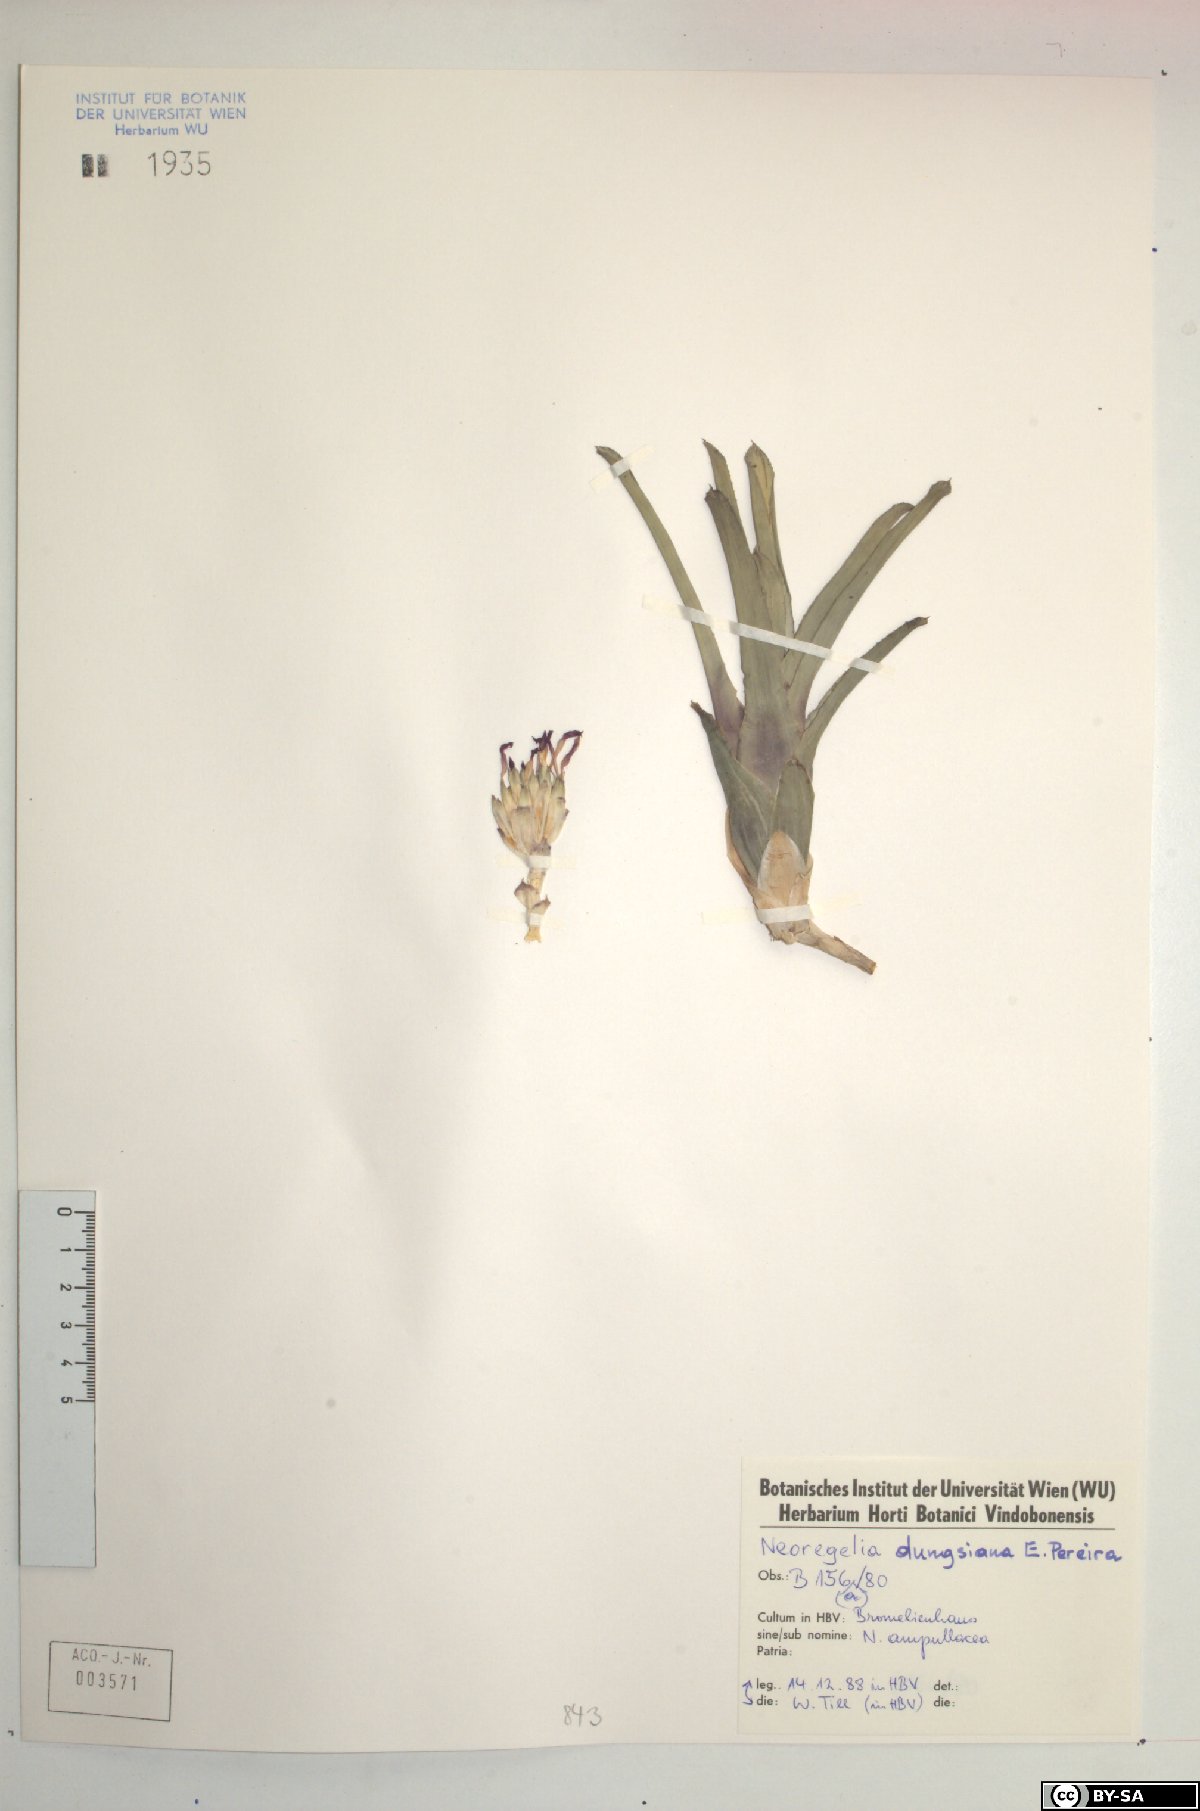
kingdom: Plantae
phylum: Tracheophyta
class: Liliopsida
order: Poales
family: Bromeliaceae
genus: Neoregelia
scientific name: Neoregelia dungsiana
